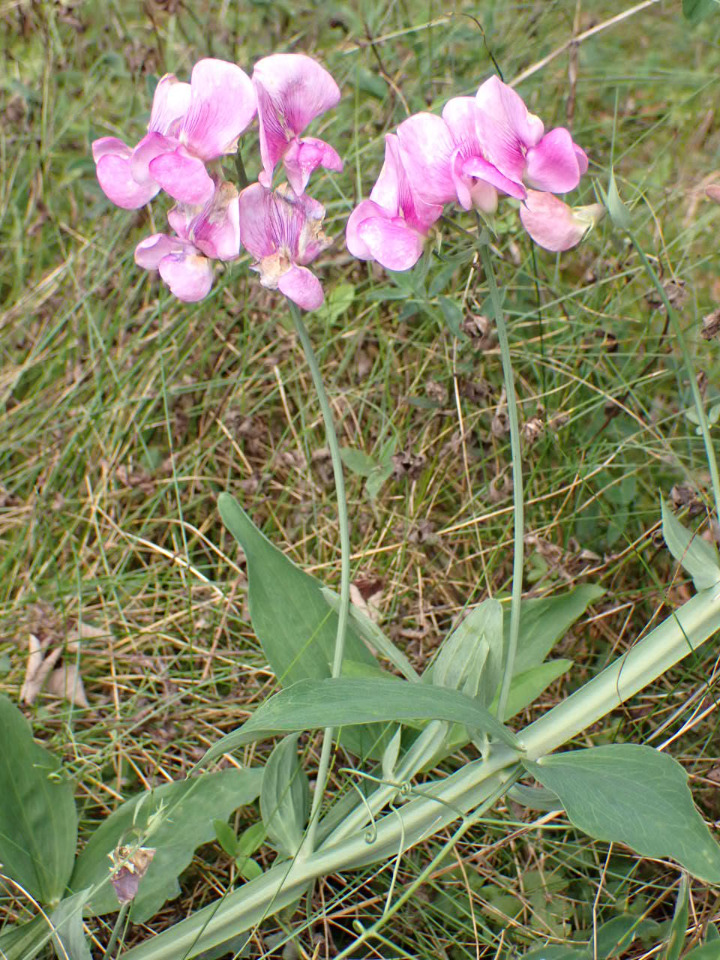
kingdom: Plantae
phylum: Tracheophyta
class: Magnoliopsida
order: Fabales
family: Fabaceae
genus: Lathyrus
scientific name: Lathyrus latifolius
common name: Flerårig ærteblomst
